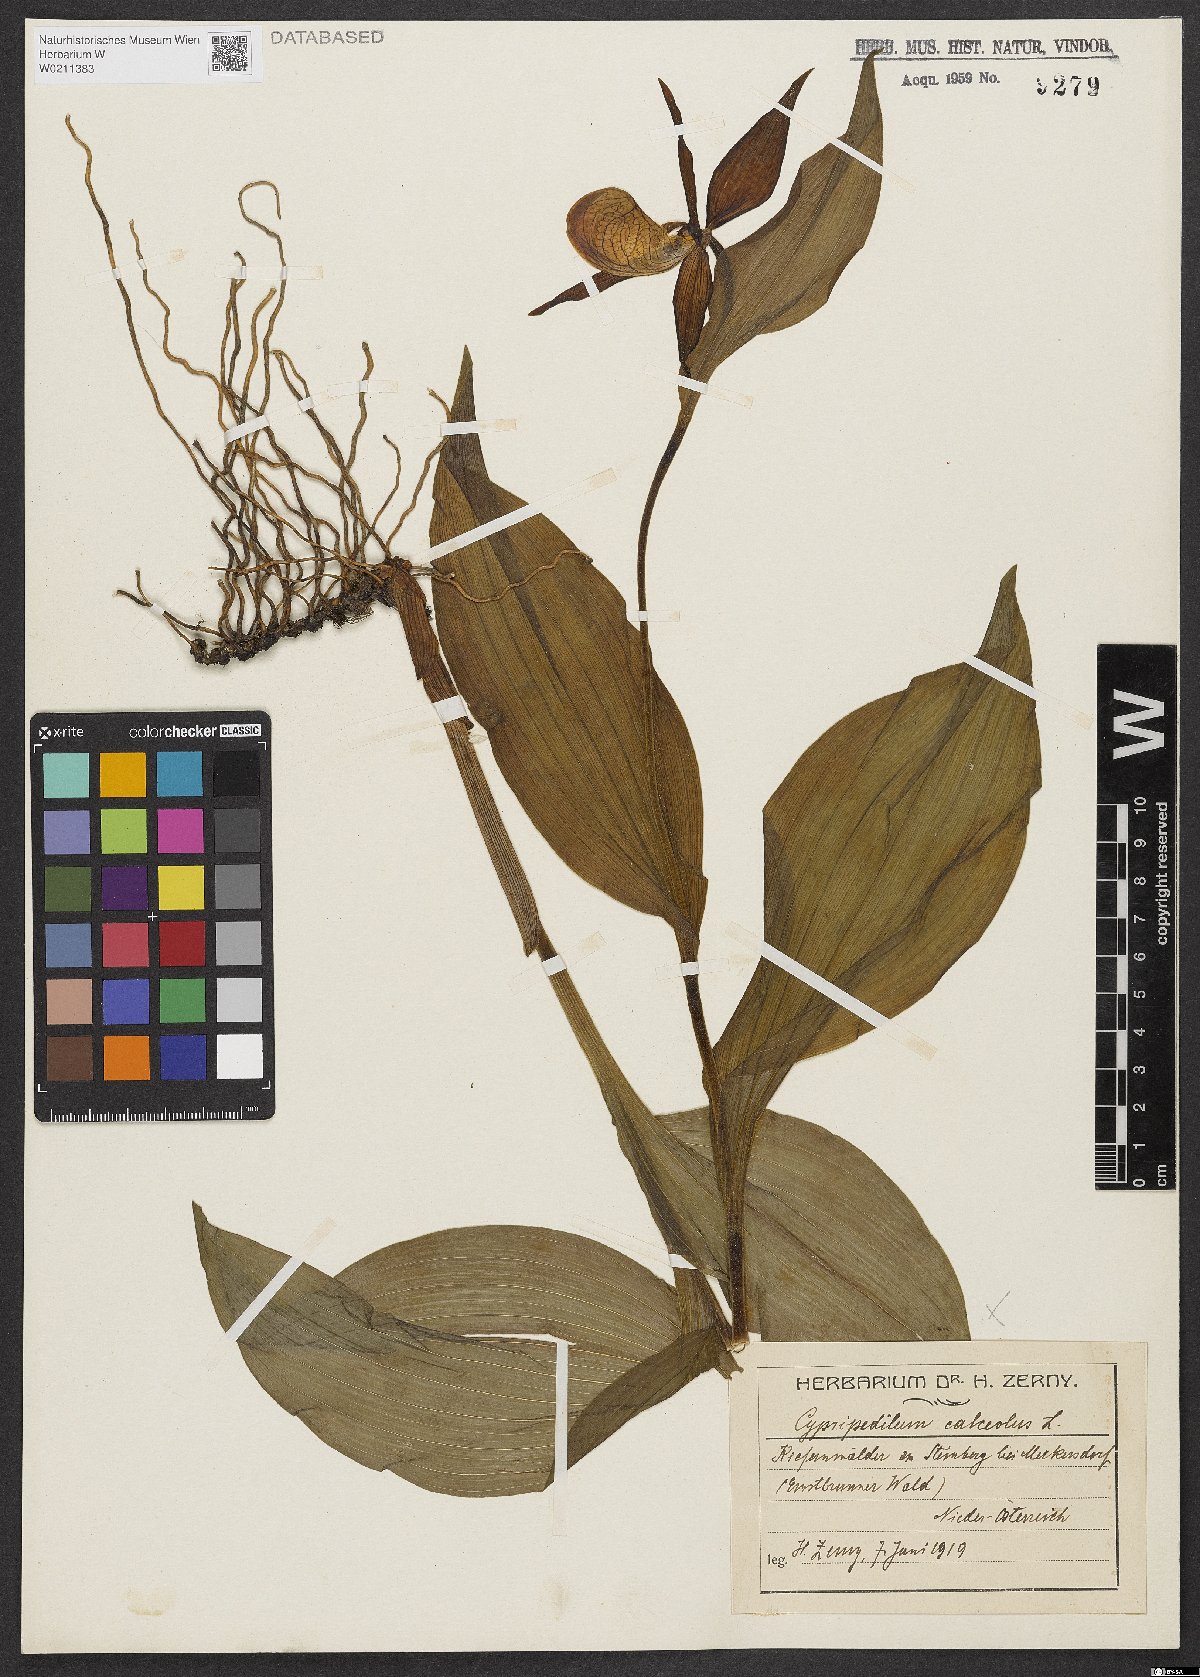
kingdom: Plantae
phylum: Tracheophyta
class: Liliopsida
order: Asparagales
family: Orchidaceae
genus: Cypripedium
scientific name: Cypripedium calceolus
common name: Lady's-slipper
